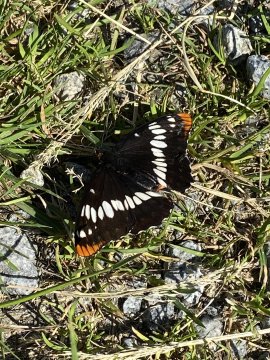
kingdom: Animalia
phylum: Arthropoda
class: Insecta
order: Lepidoptera
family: Nymphalidae
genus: Limenitis
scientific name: Limenitis lorquini
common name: Lorquin's Admiral
